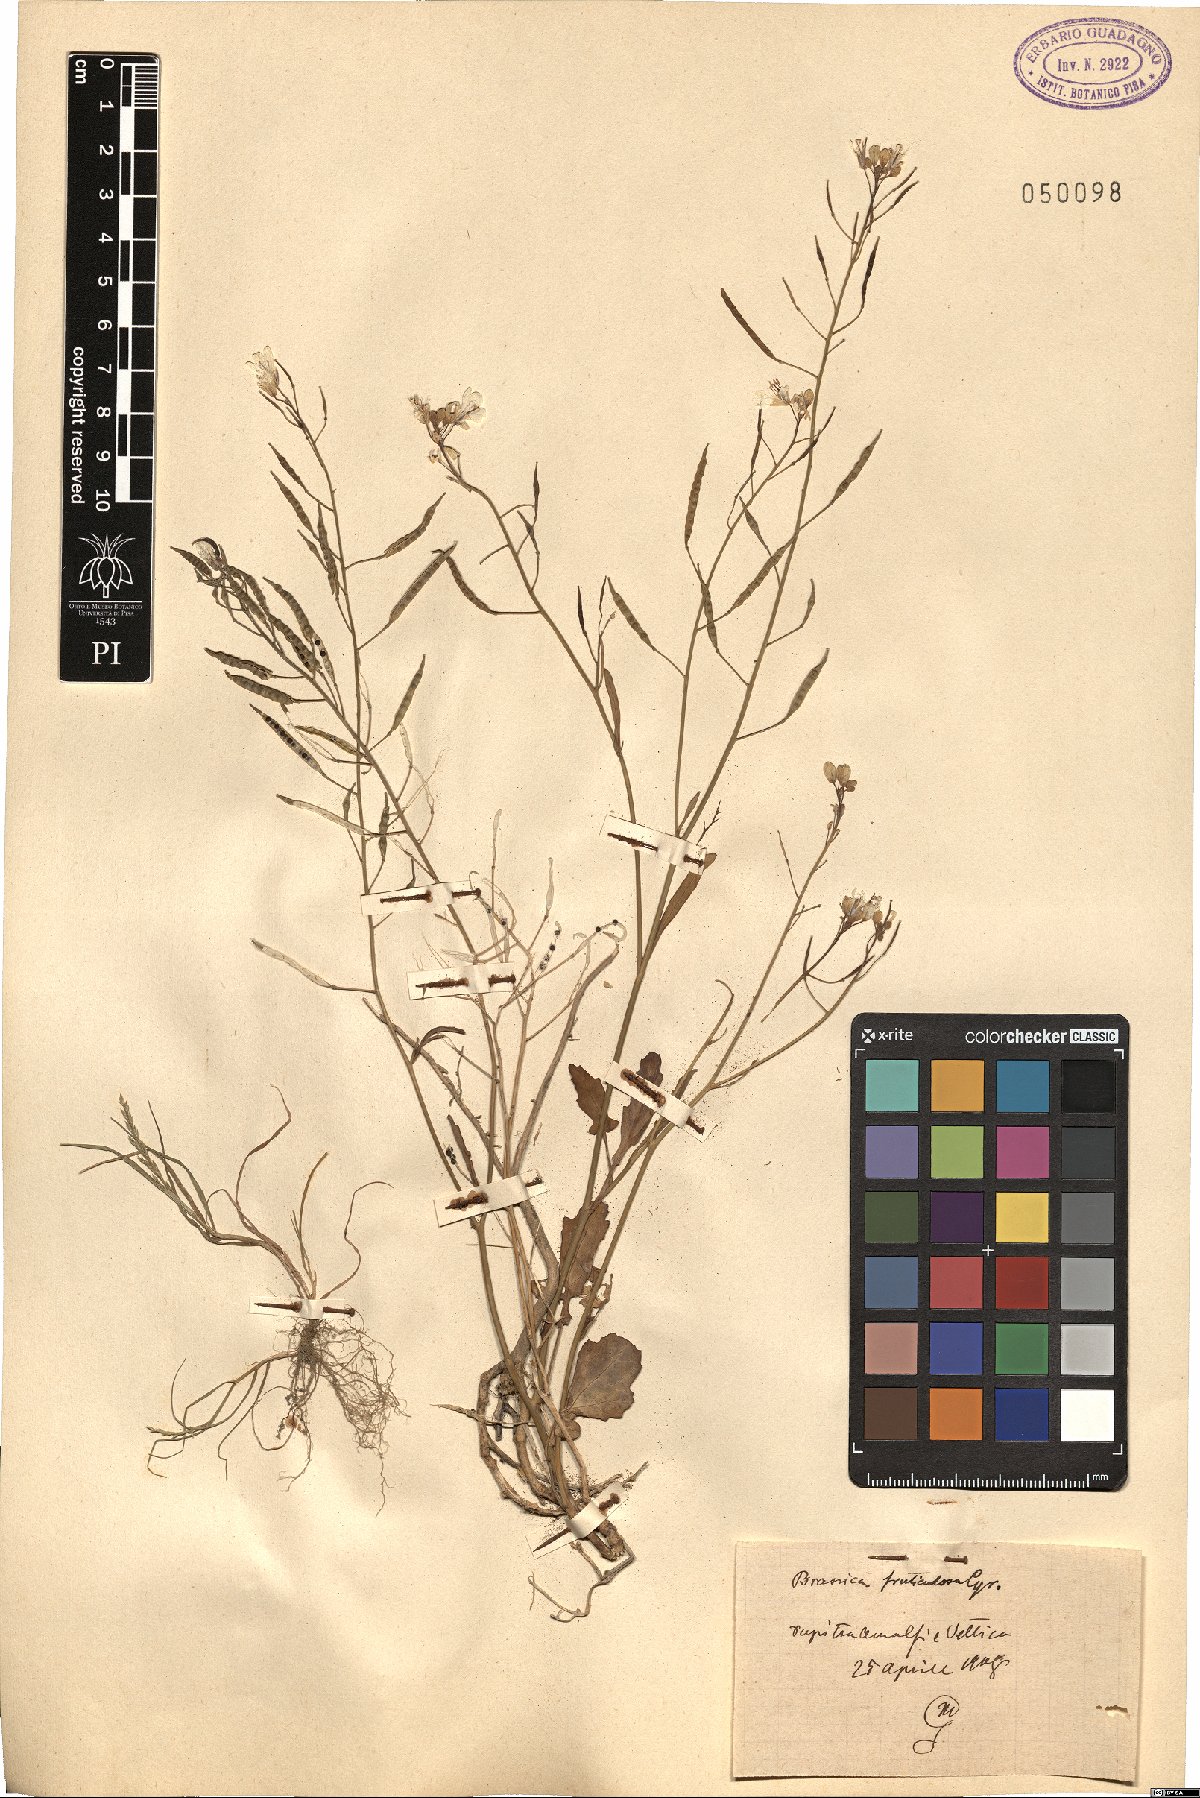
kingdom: Plantae
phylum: Tracheophyta
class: Magnoliopsida
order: Brassicales
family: Brassicaceae
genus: Brassica
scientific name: Brassica fruticulosa
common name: Twiggy turnip
